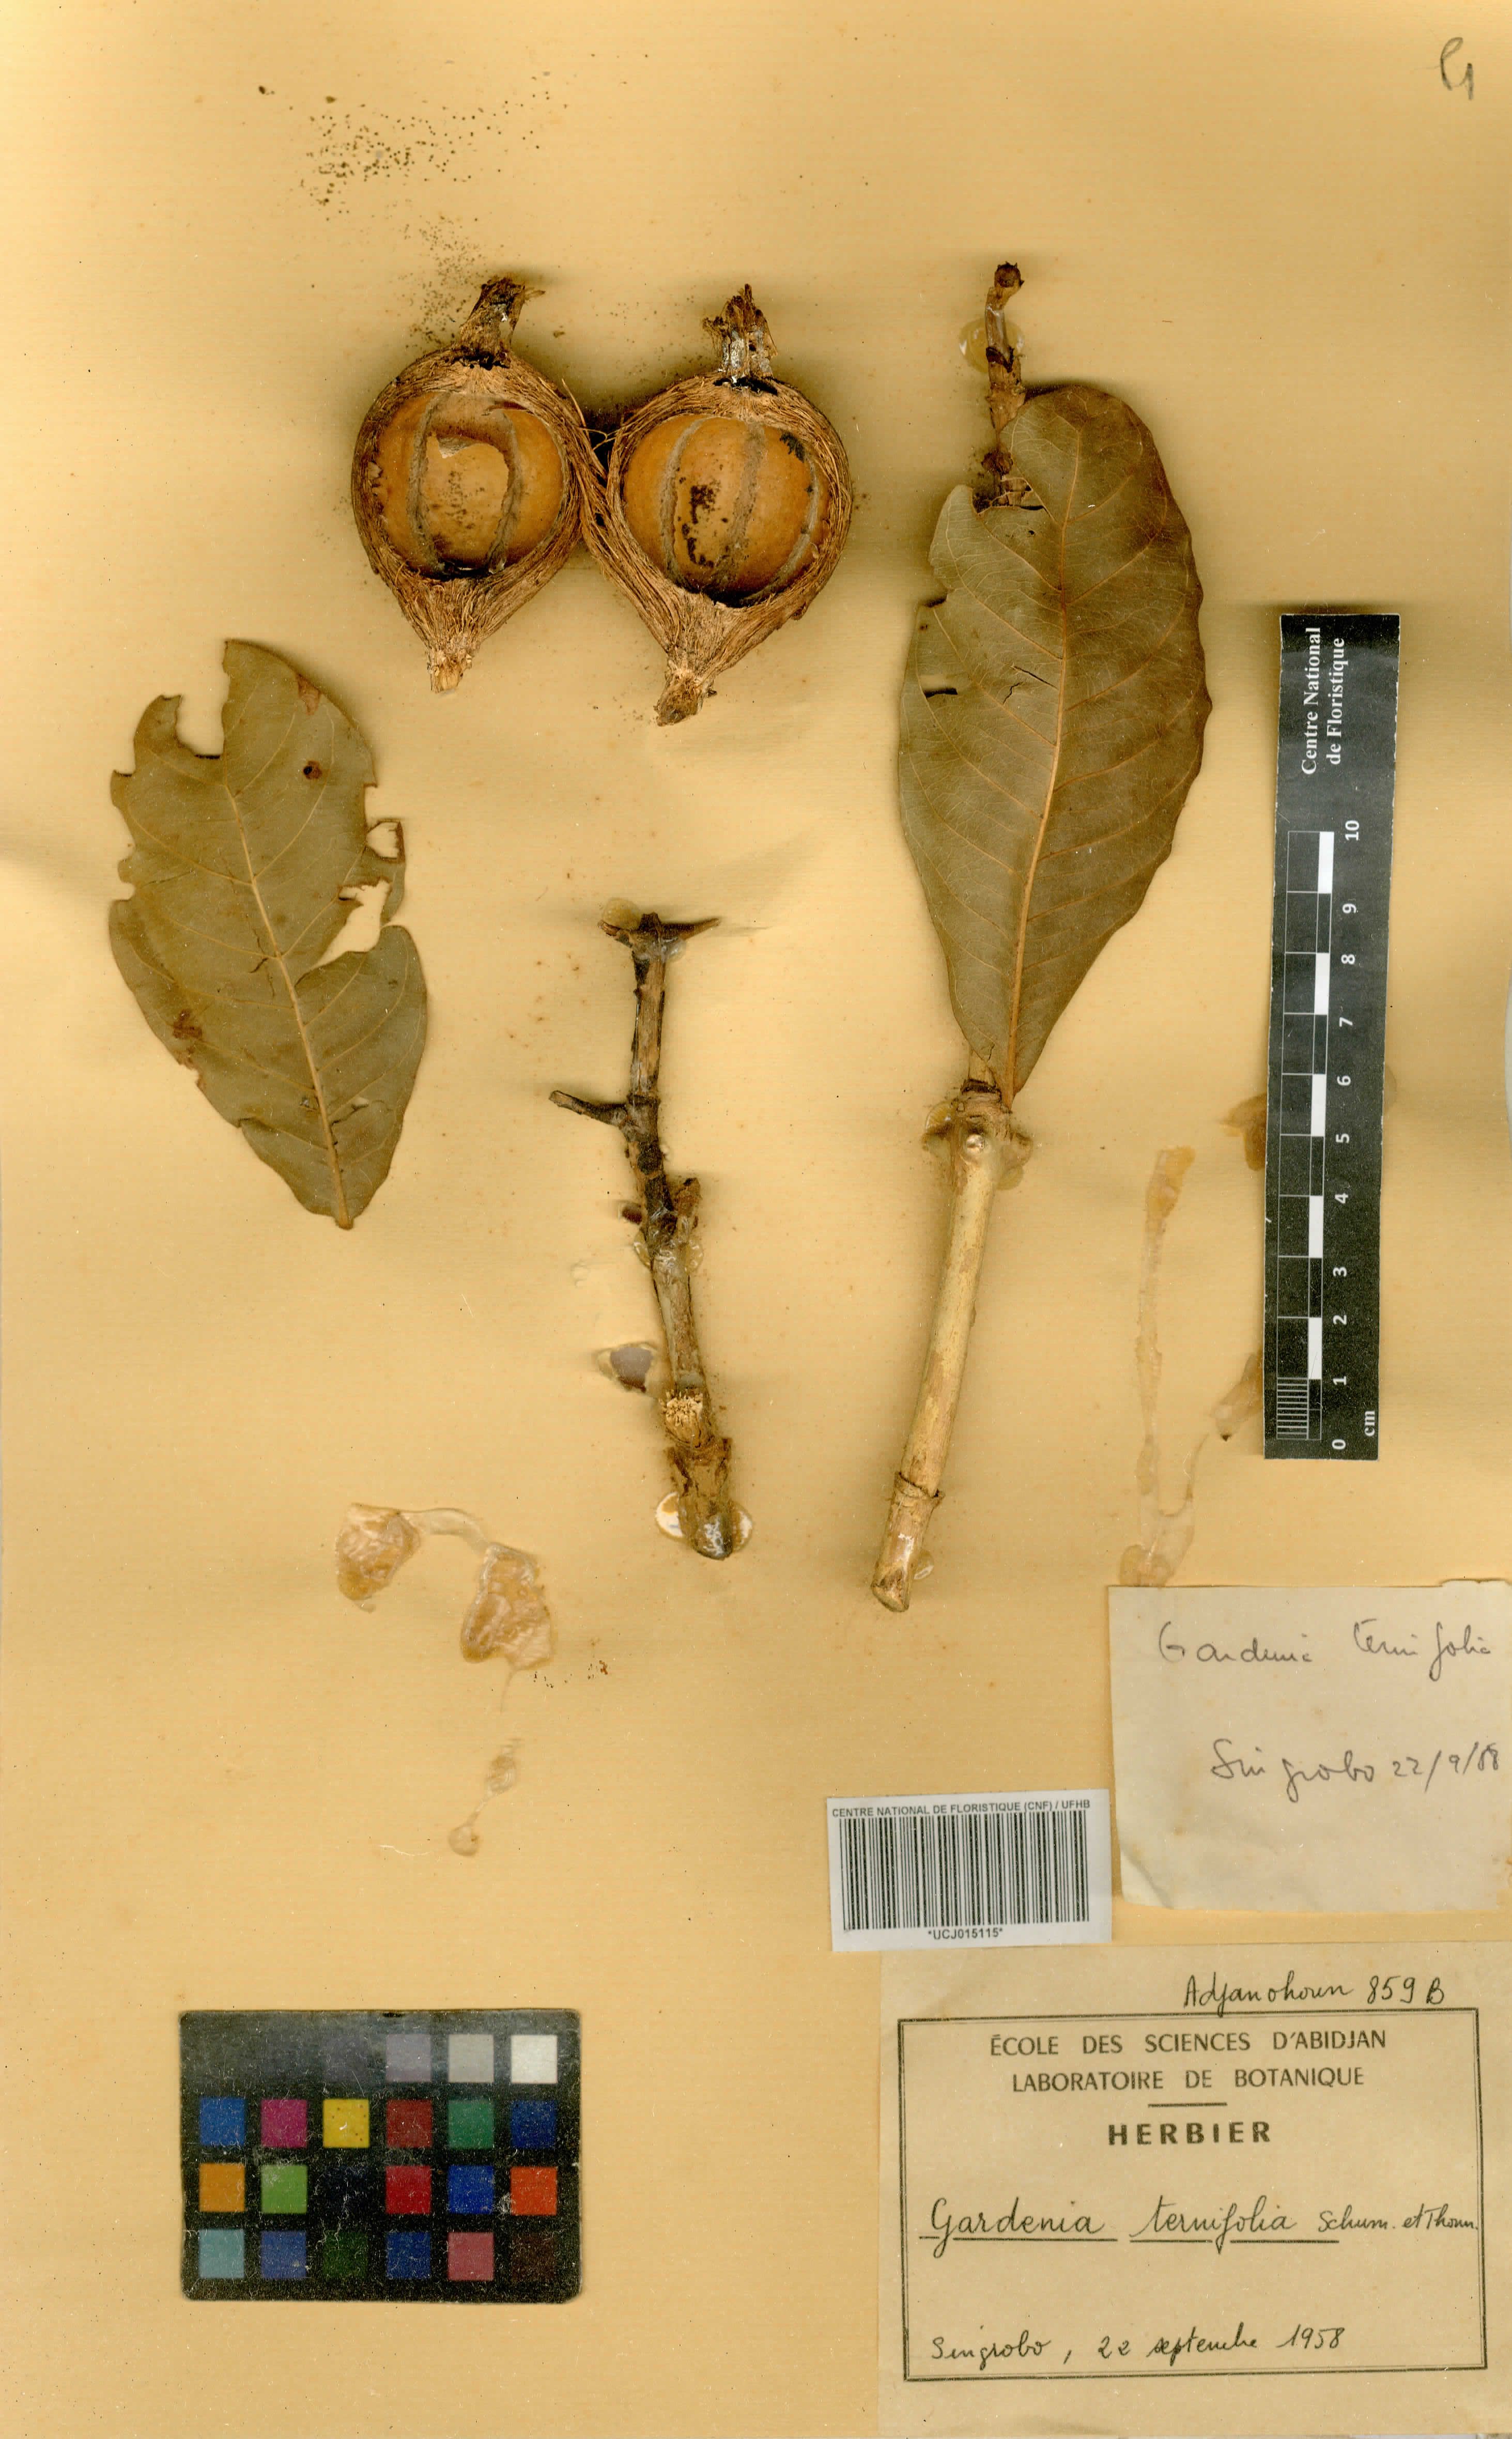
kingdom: Plantae
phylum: Tracheophyta
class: Magnoliopsida
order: Gentianales
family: Rubiaceae
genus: Gardenia
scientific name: Gardenia ternifolia
